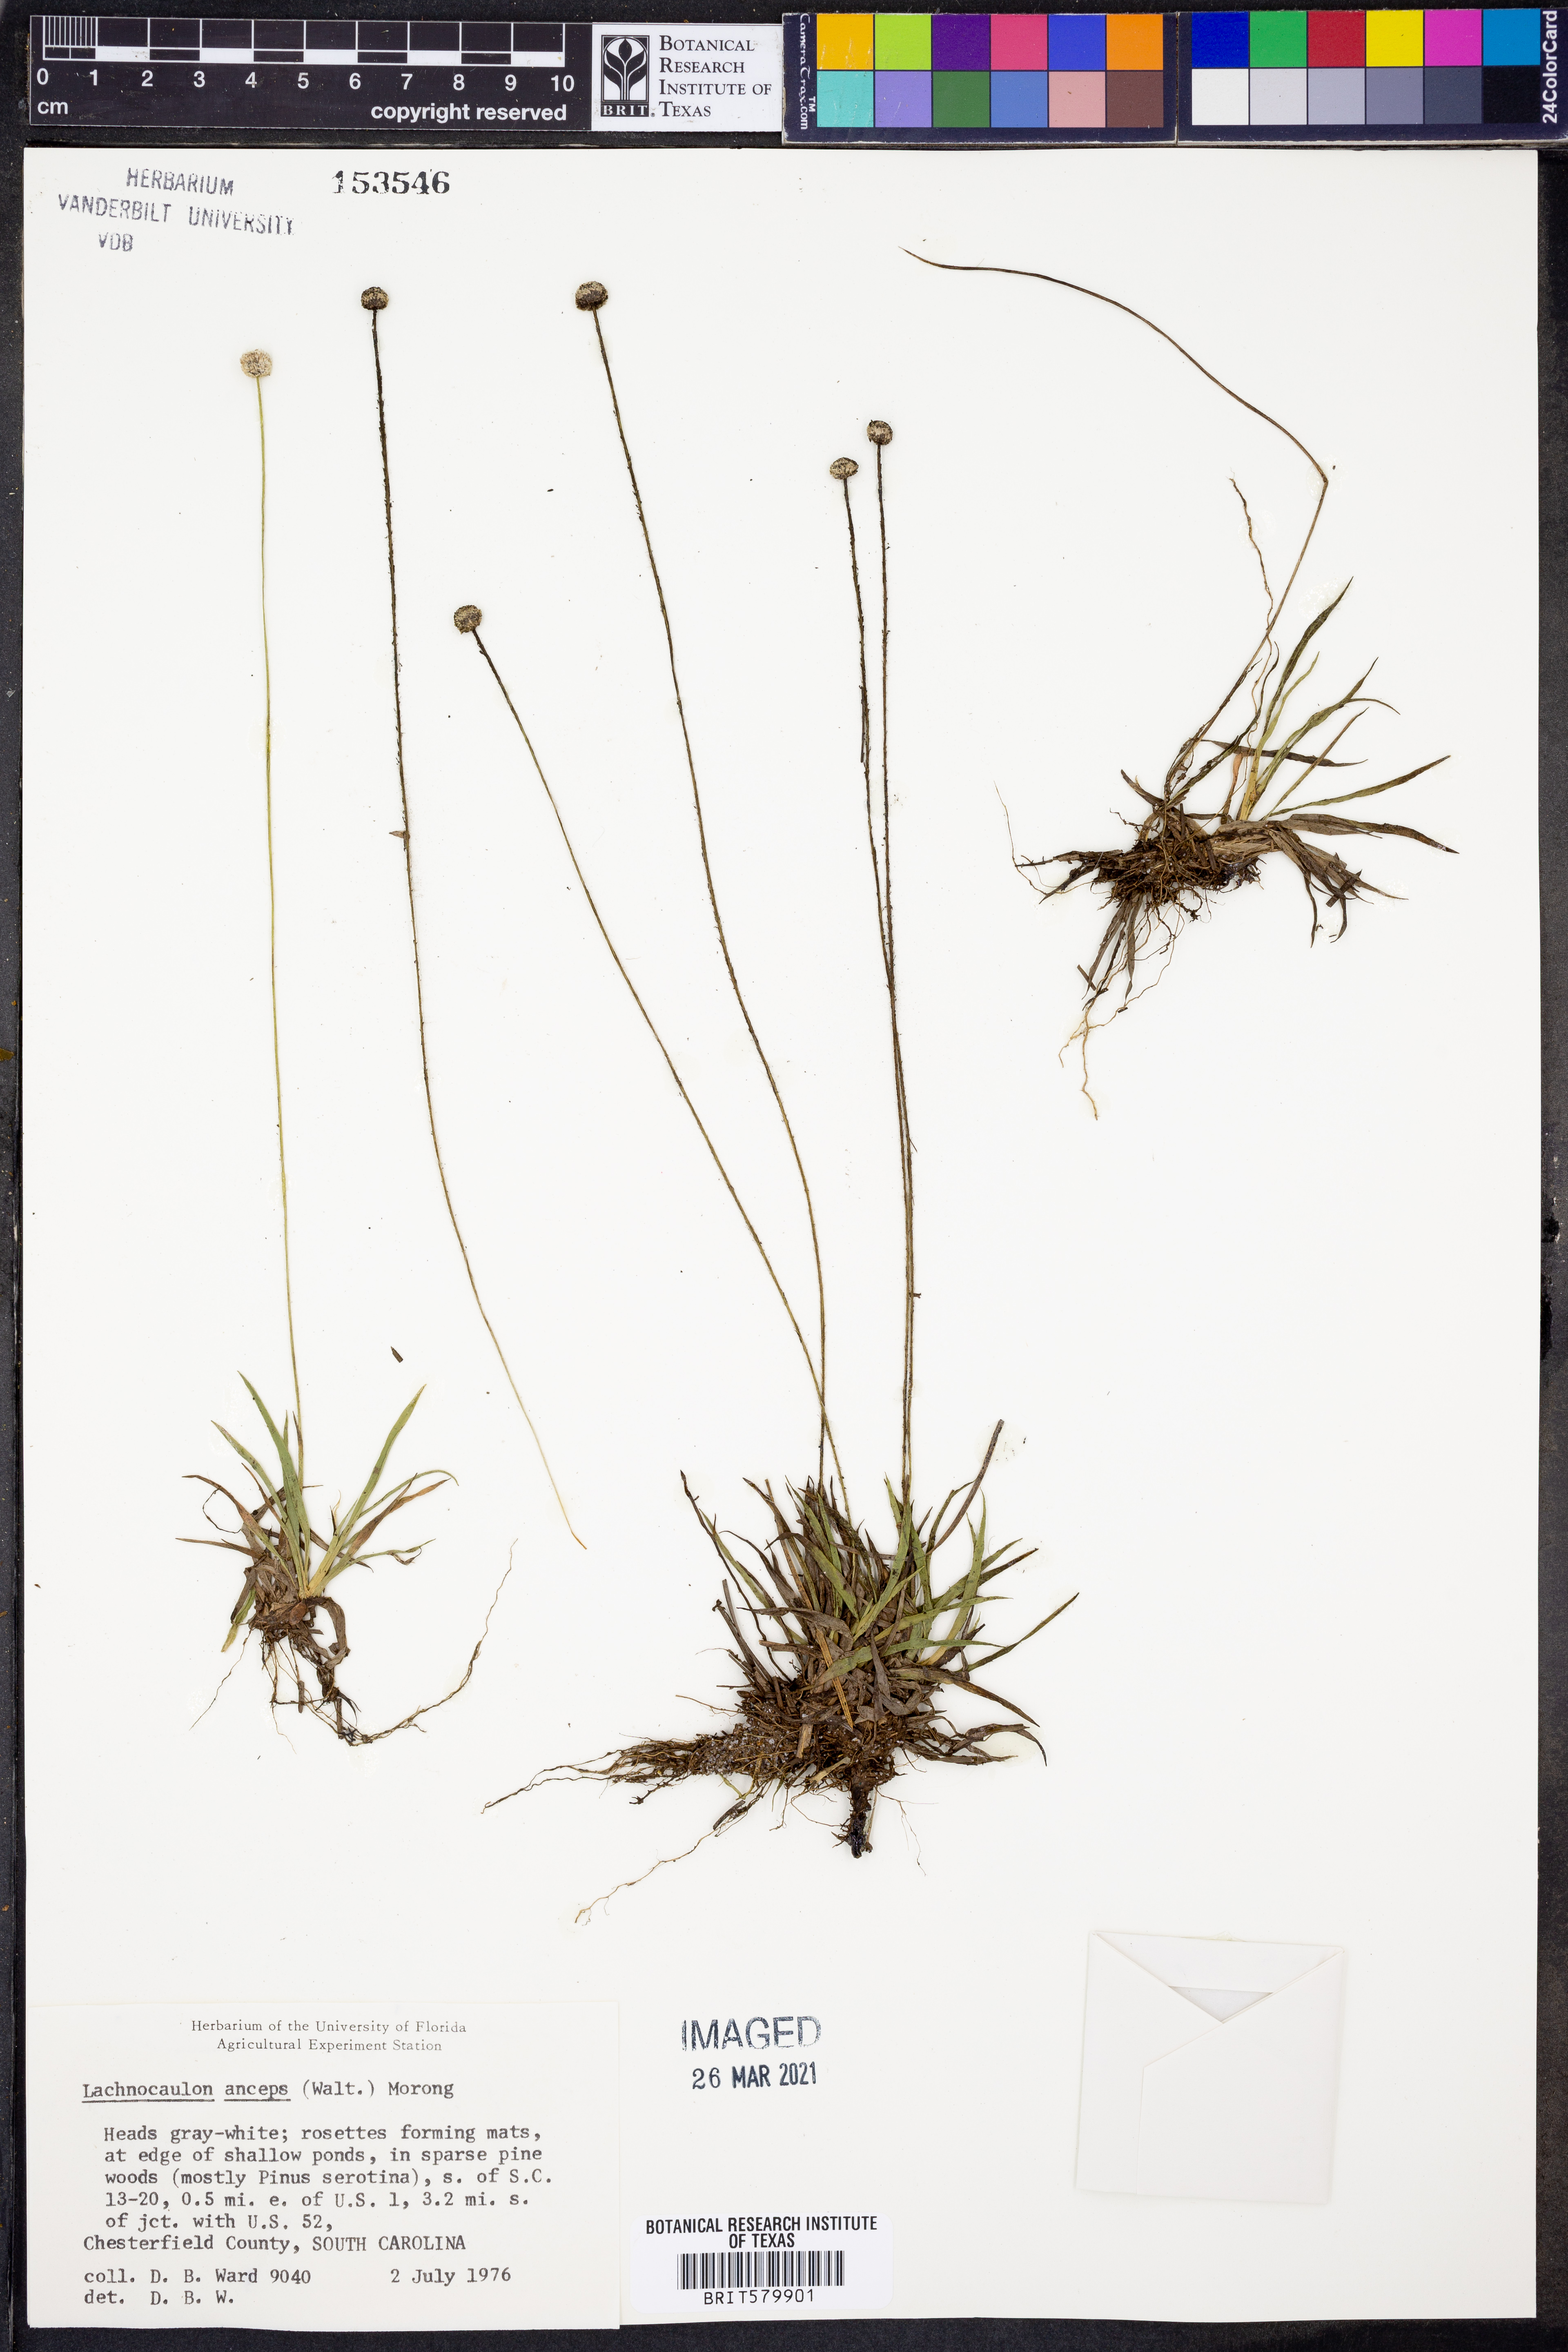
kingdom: Plantae
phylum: Tracheophyta
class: Liliopsida
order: Poales
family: Eriocaulaceae
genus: Paepalanthus
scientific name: Paepalanthus anceps
